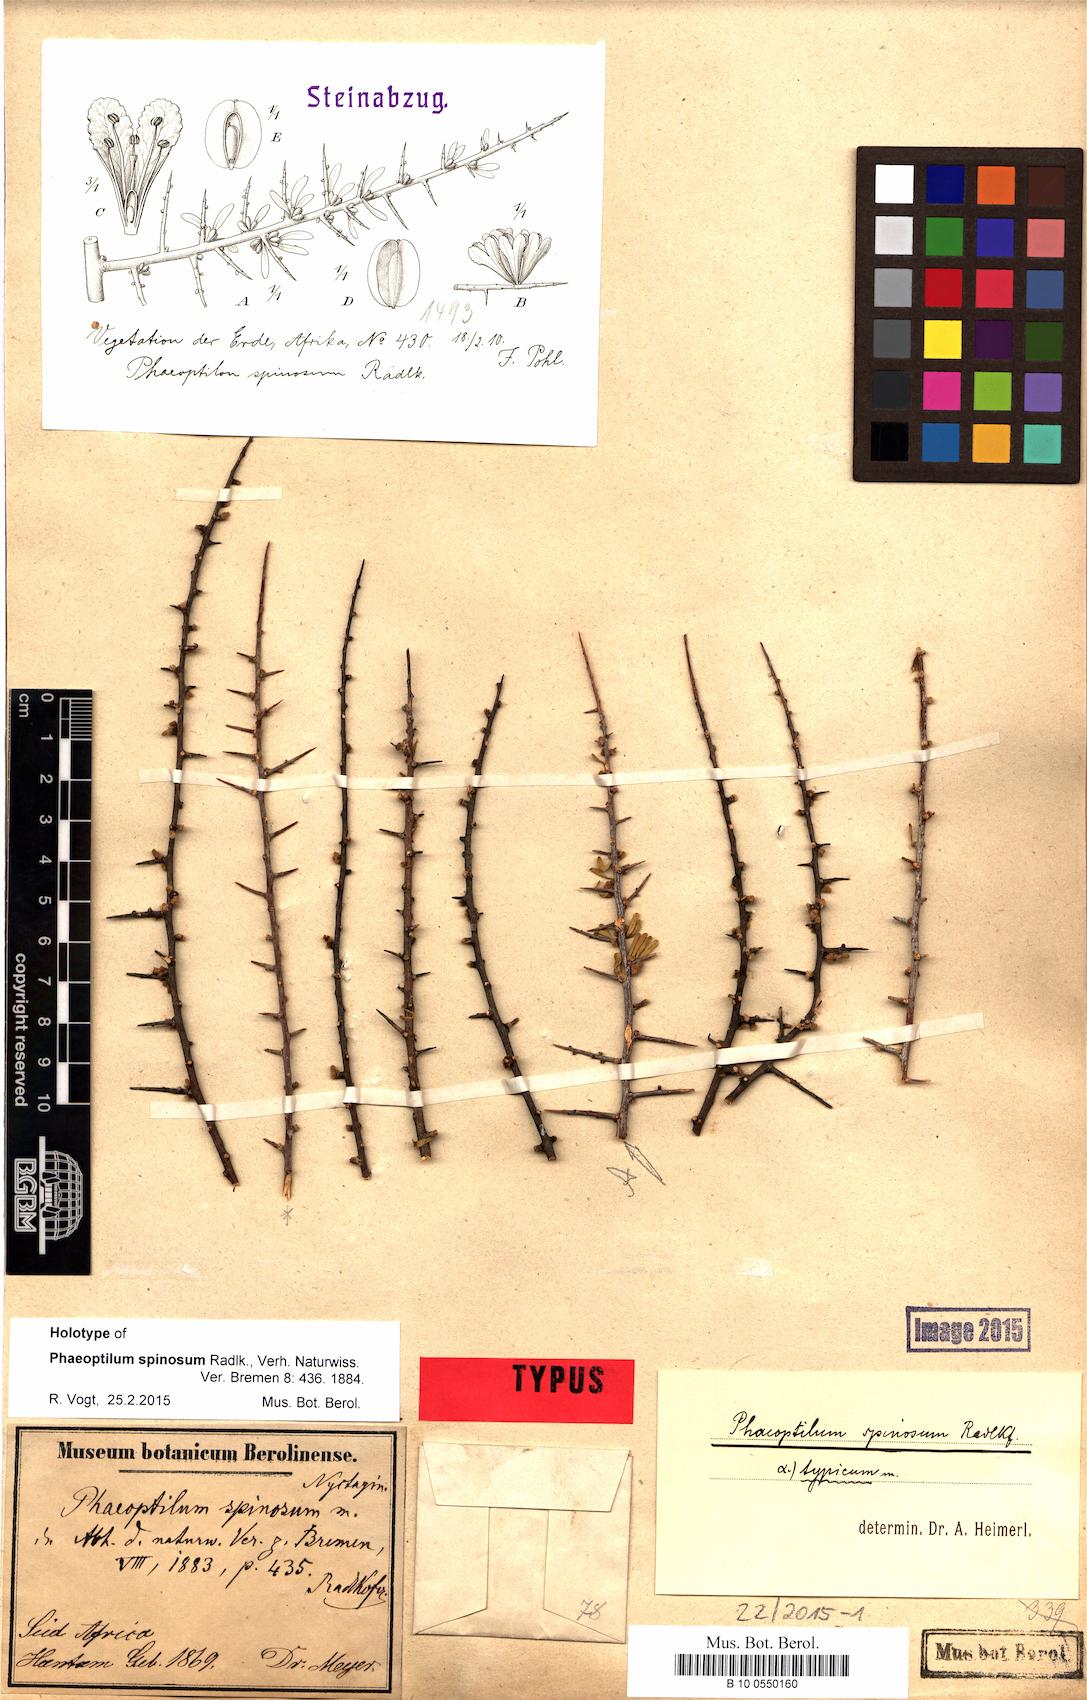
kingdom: Plantae
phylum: Tracheophyta
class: Magnoliopsida
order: Caryophyllales
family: Nyctaginaceae
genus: Phaeoptilum
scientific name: Phaeoptilum spinosum
